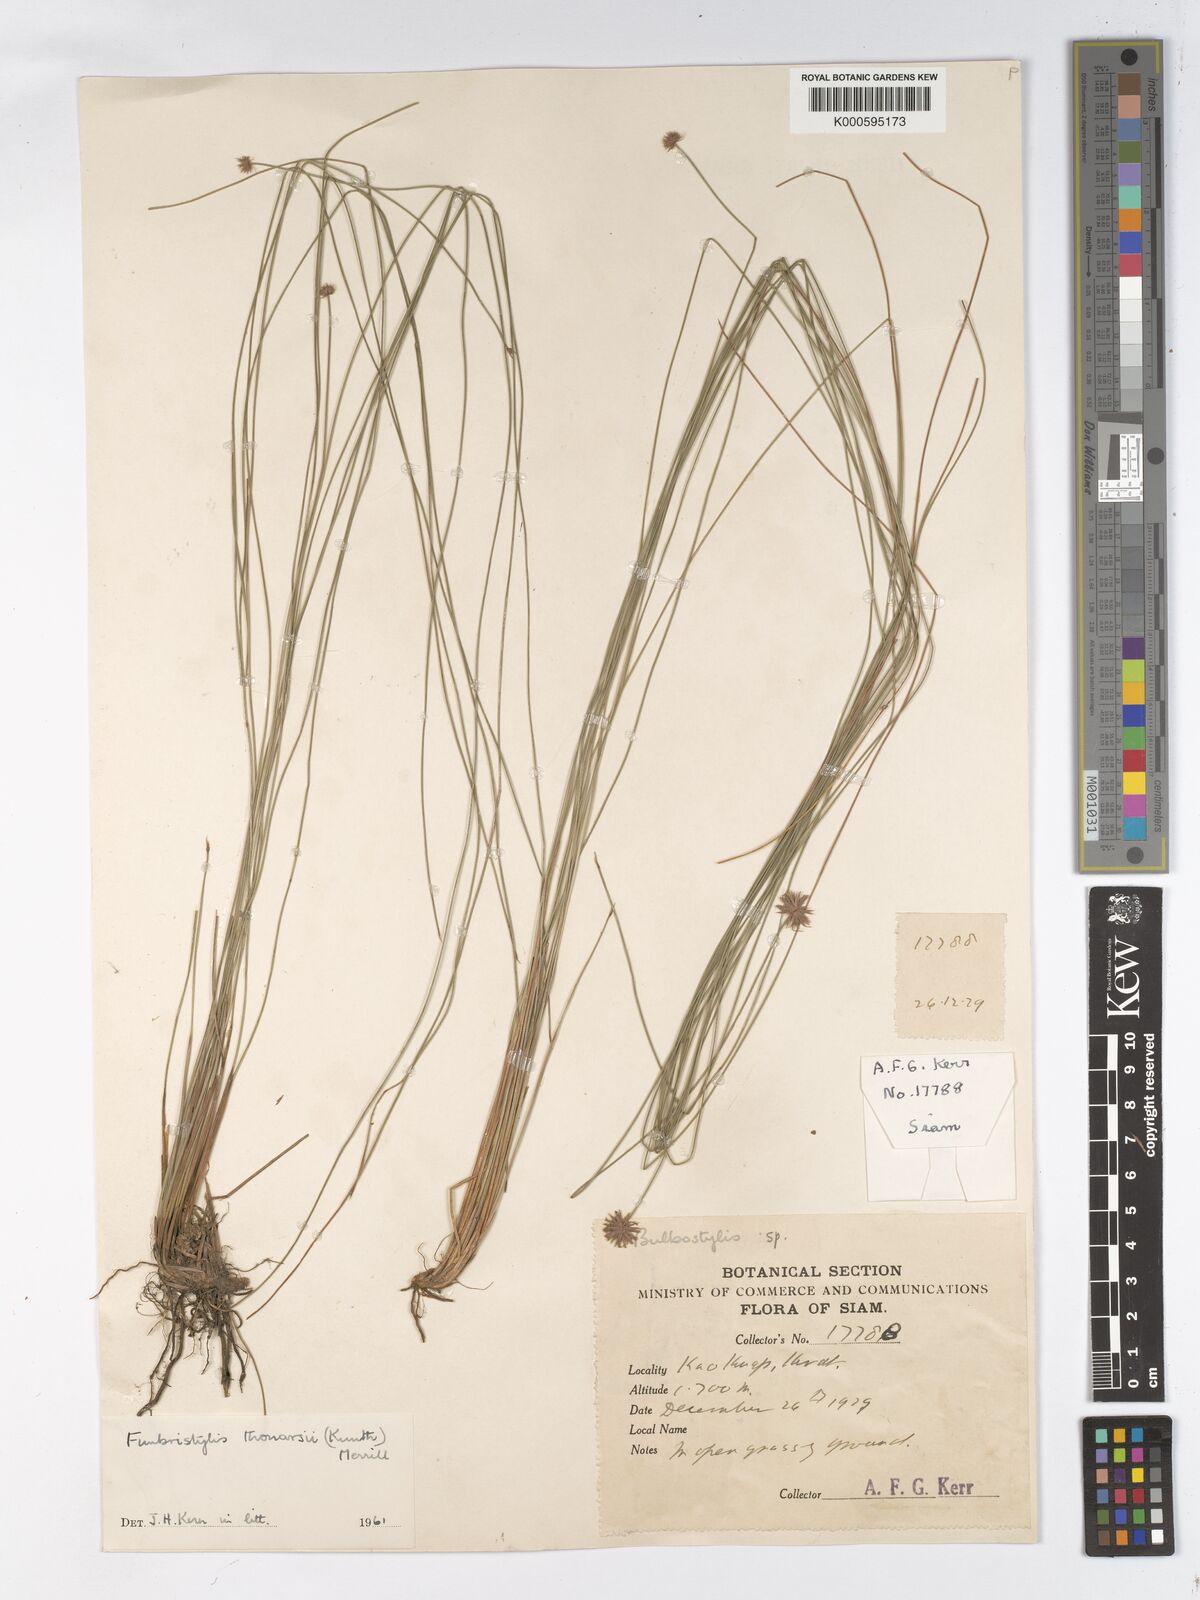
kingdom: Plantae
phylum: Tracheophyta
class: Liliopsida
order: Poales
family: Cyperaceae
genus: Actinoschoenus
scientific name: Actinoschoenus aphyllus
